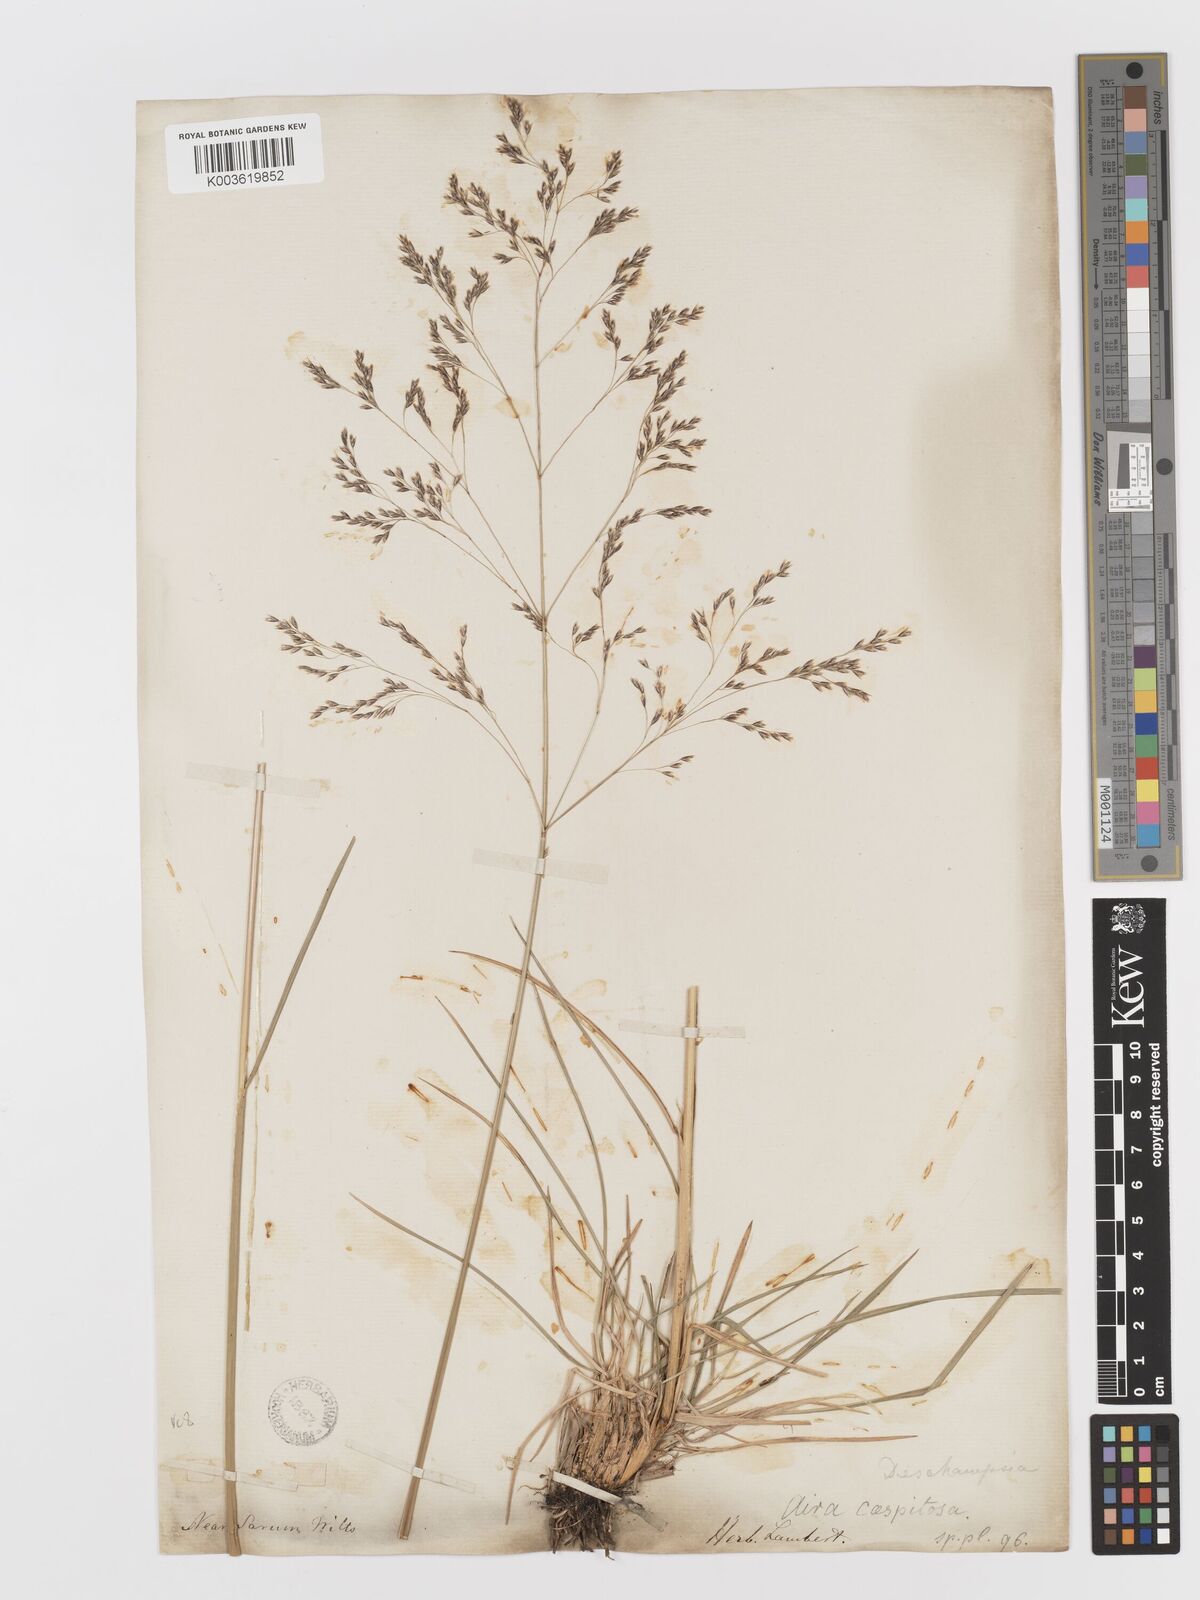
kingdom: Plantae
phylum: Tracheophyta
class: Liliopsida
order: Poales
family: Poaceae
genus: Deschampsia
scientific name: Deschampsia cespitosa
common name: Tufted hair-grass
